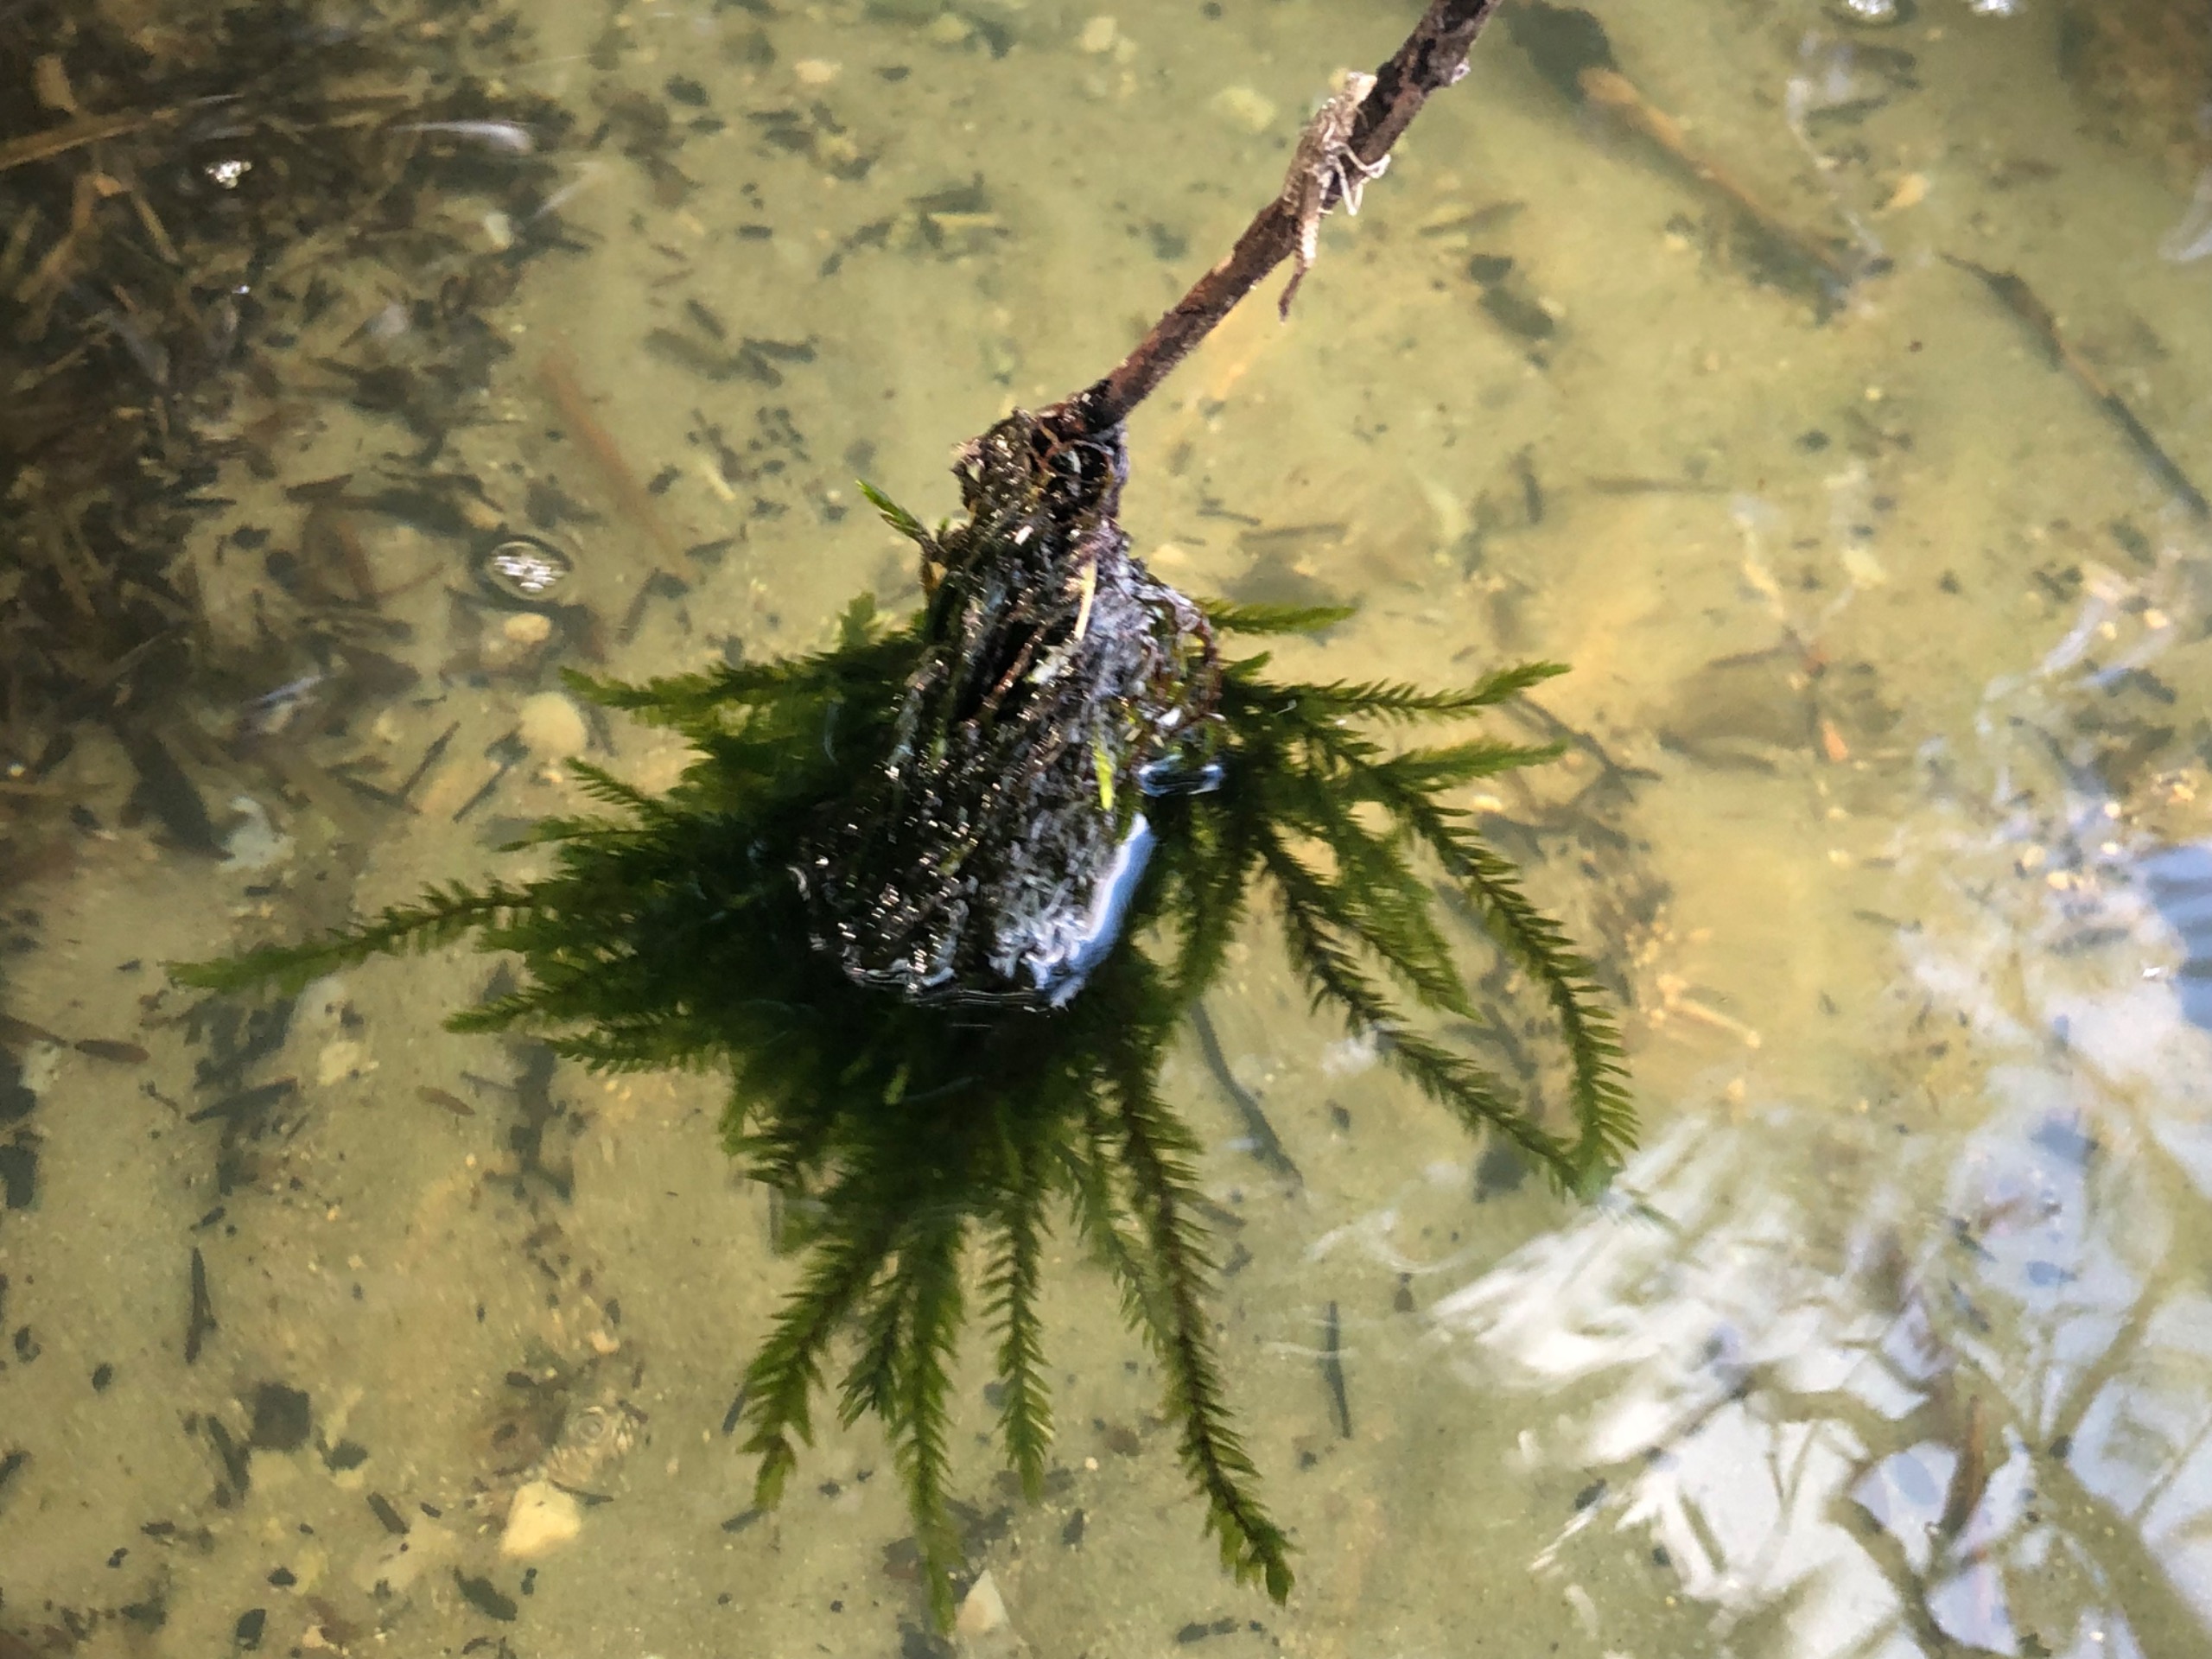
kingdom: Plantae
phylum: Bryophyta
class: Bryopsida
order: Hypnales
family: Fontinalaceae
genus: Fontinalis
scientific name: Fontinalis antipyretica
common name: Stor kildemos
